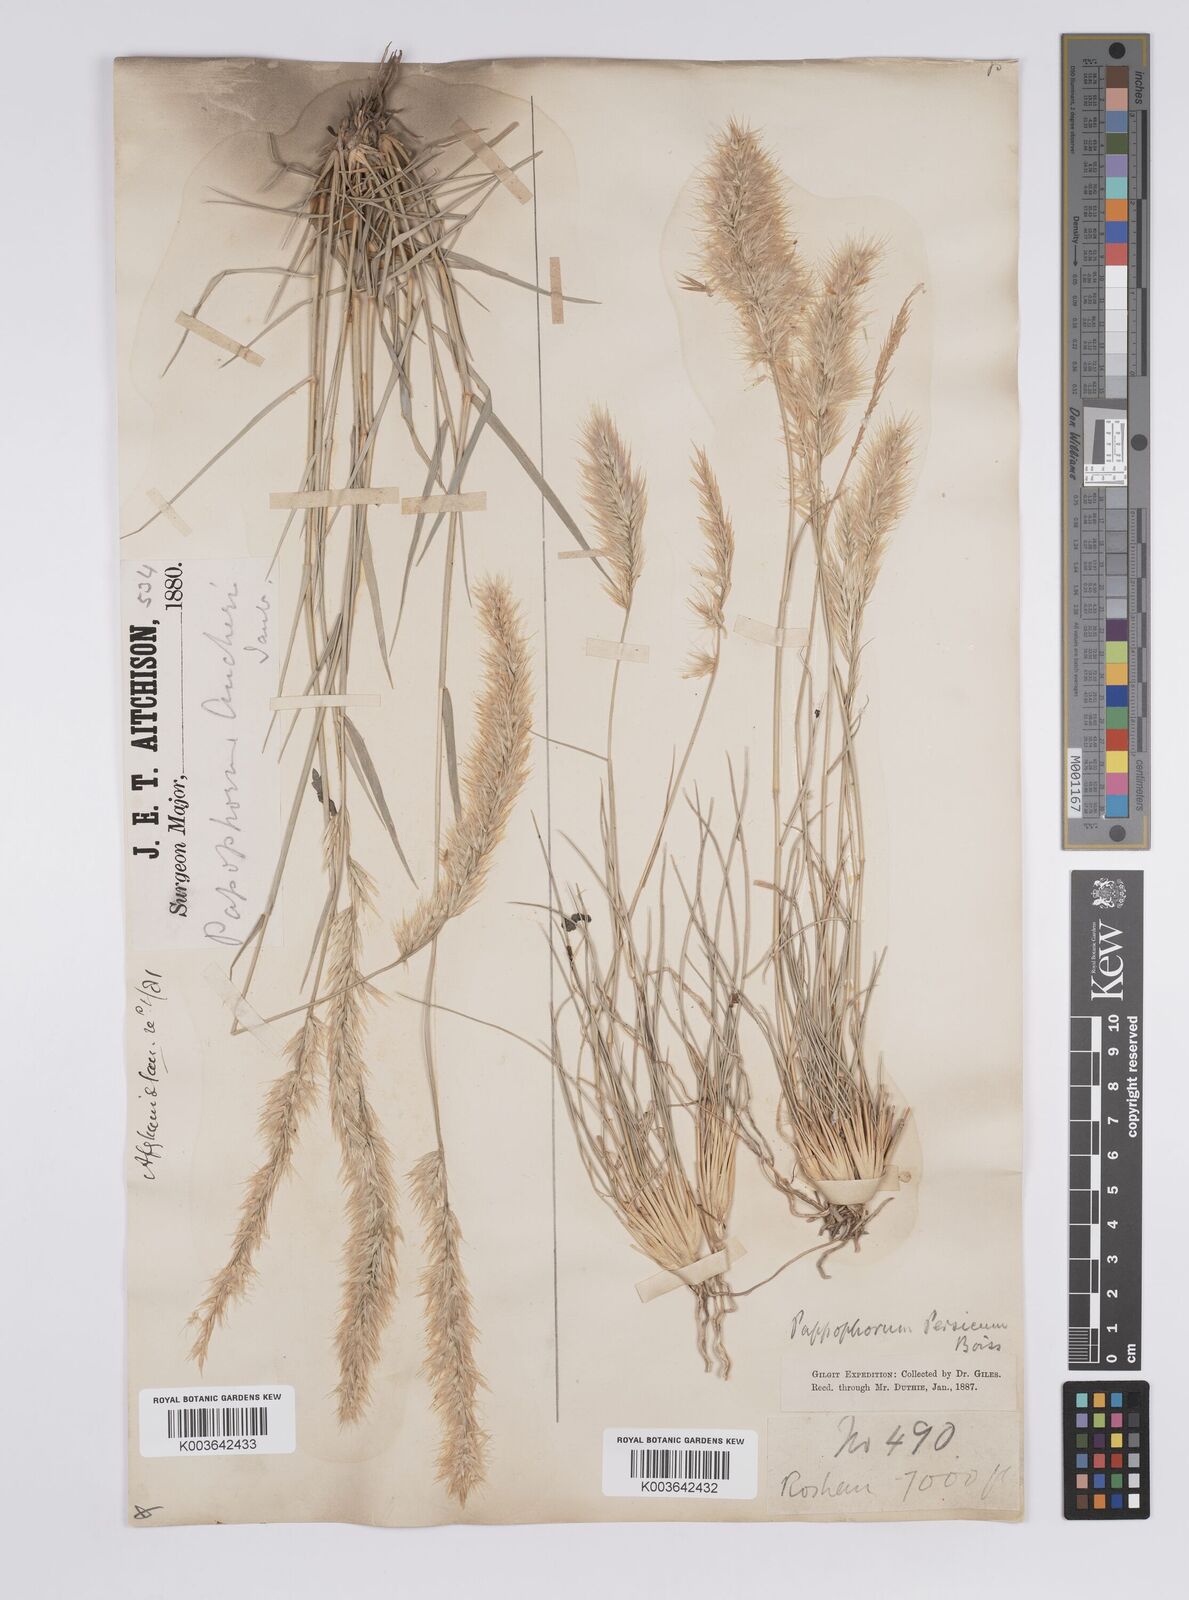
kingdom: Plantae
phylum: Tracheophyta
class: Liliopsida
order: Poales
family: Poaceae
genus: Enneapogon
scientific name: Enneapogon persicus
